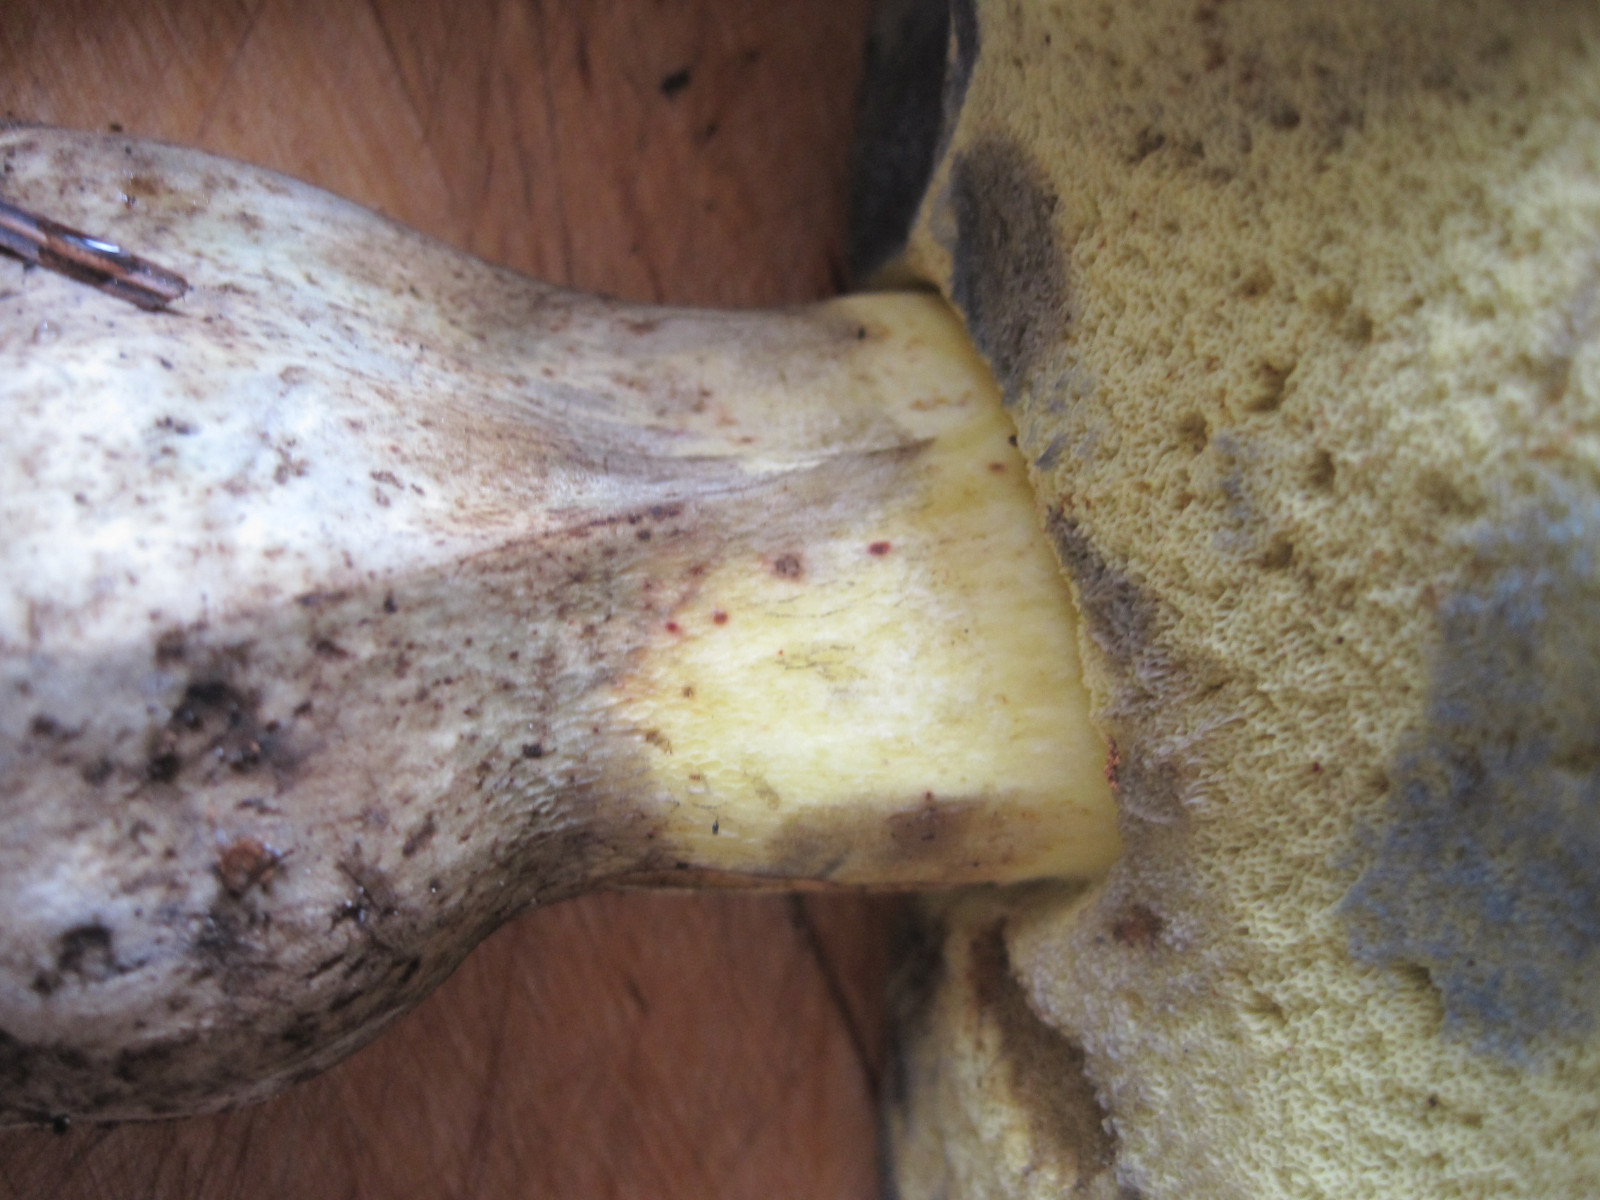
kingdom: Fungi
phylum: Basidiomycota
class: Agaricomycetes
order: Boletales
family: Boletaceae
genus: Caloboletus
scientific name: Caloboletus radicans
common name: rod-rørhat
